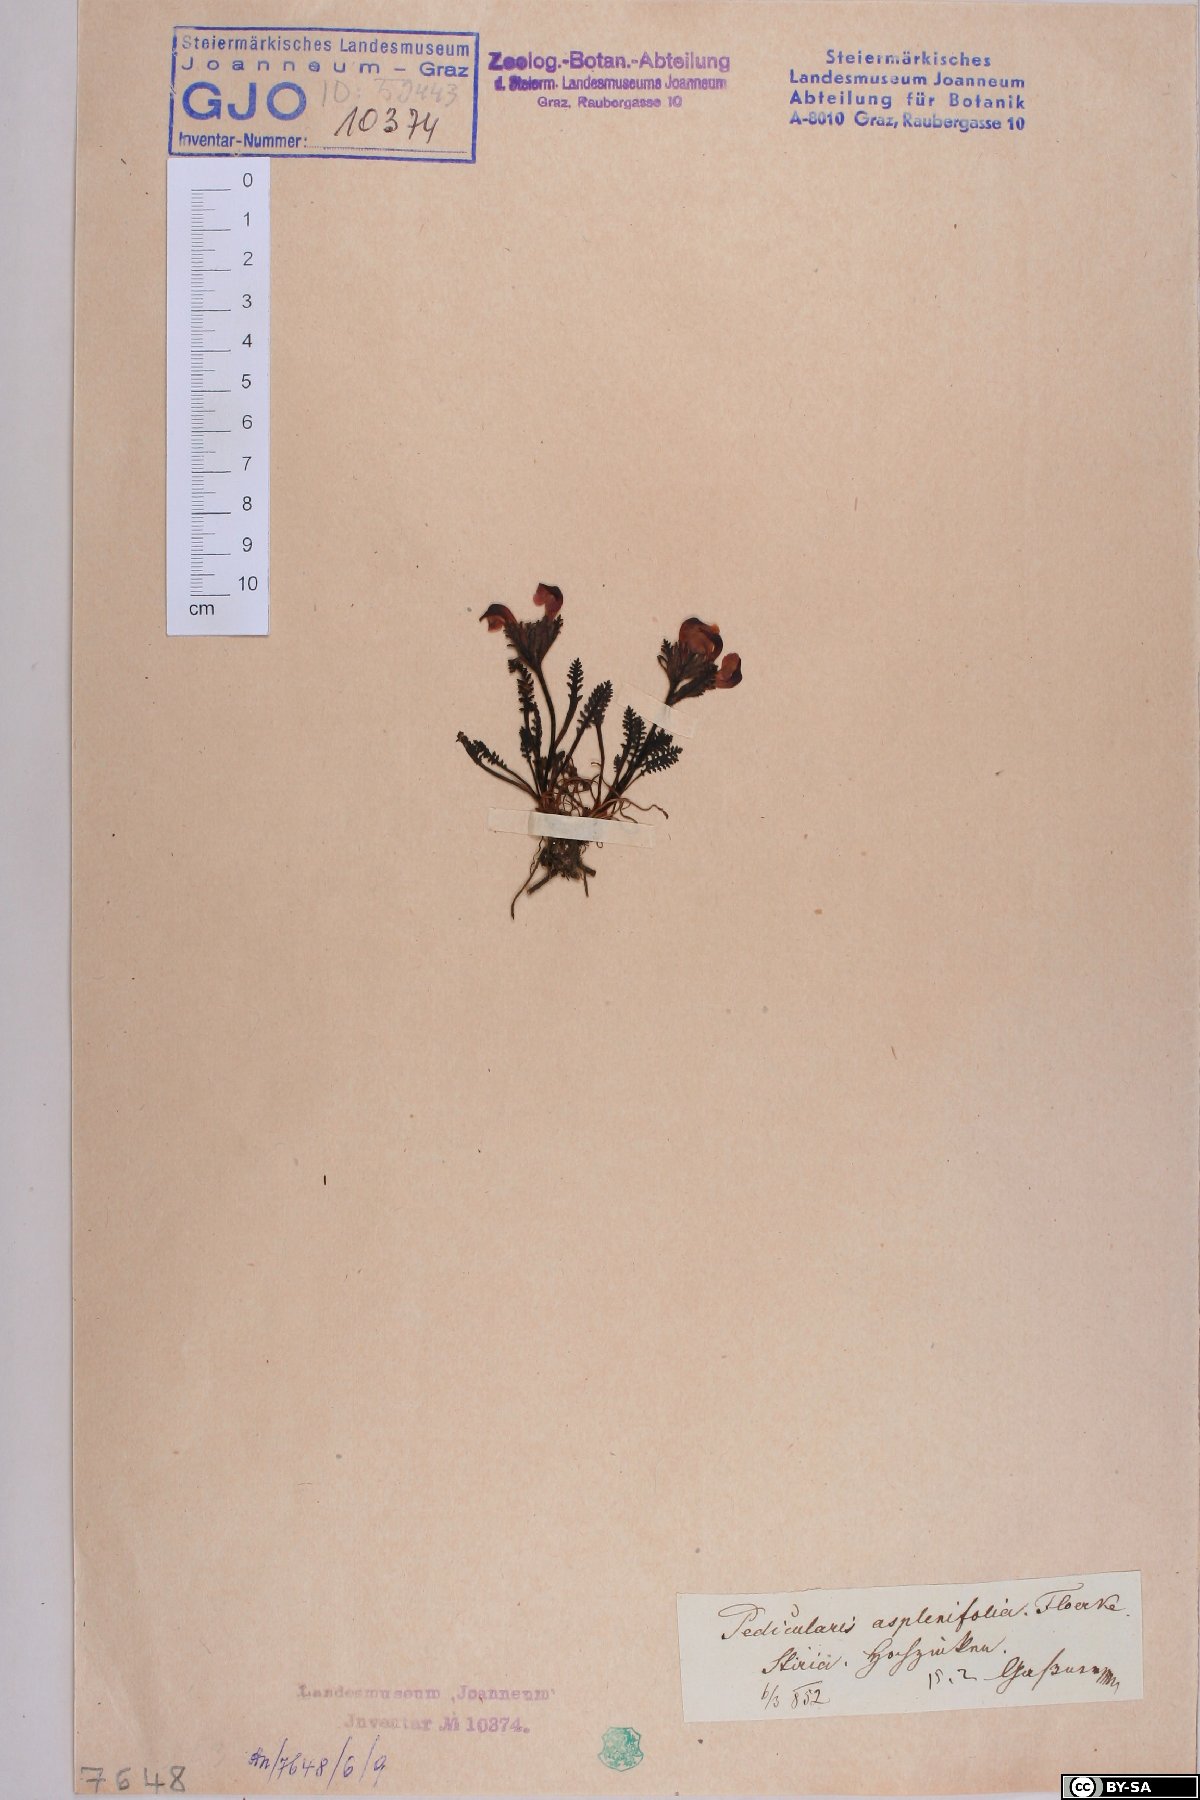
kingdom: Plantae
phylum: Tracheophyta
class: Magnoliopsida
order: Lamiales
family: Orobanchaceae
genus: Pedicularis
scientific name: Pedicularis asplenifolia
